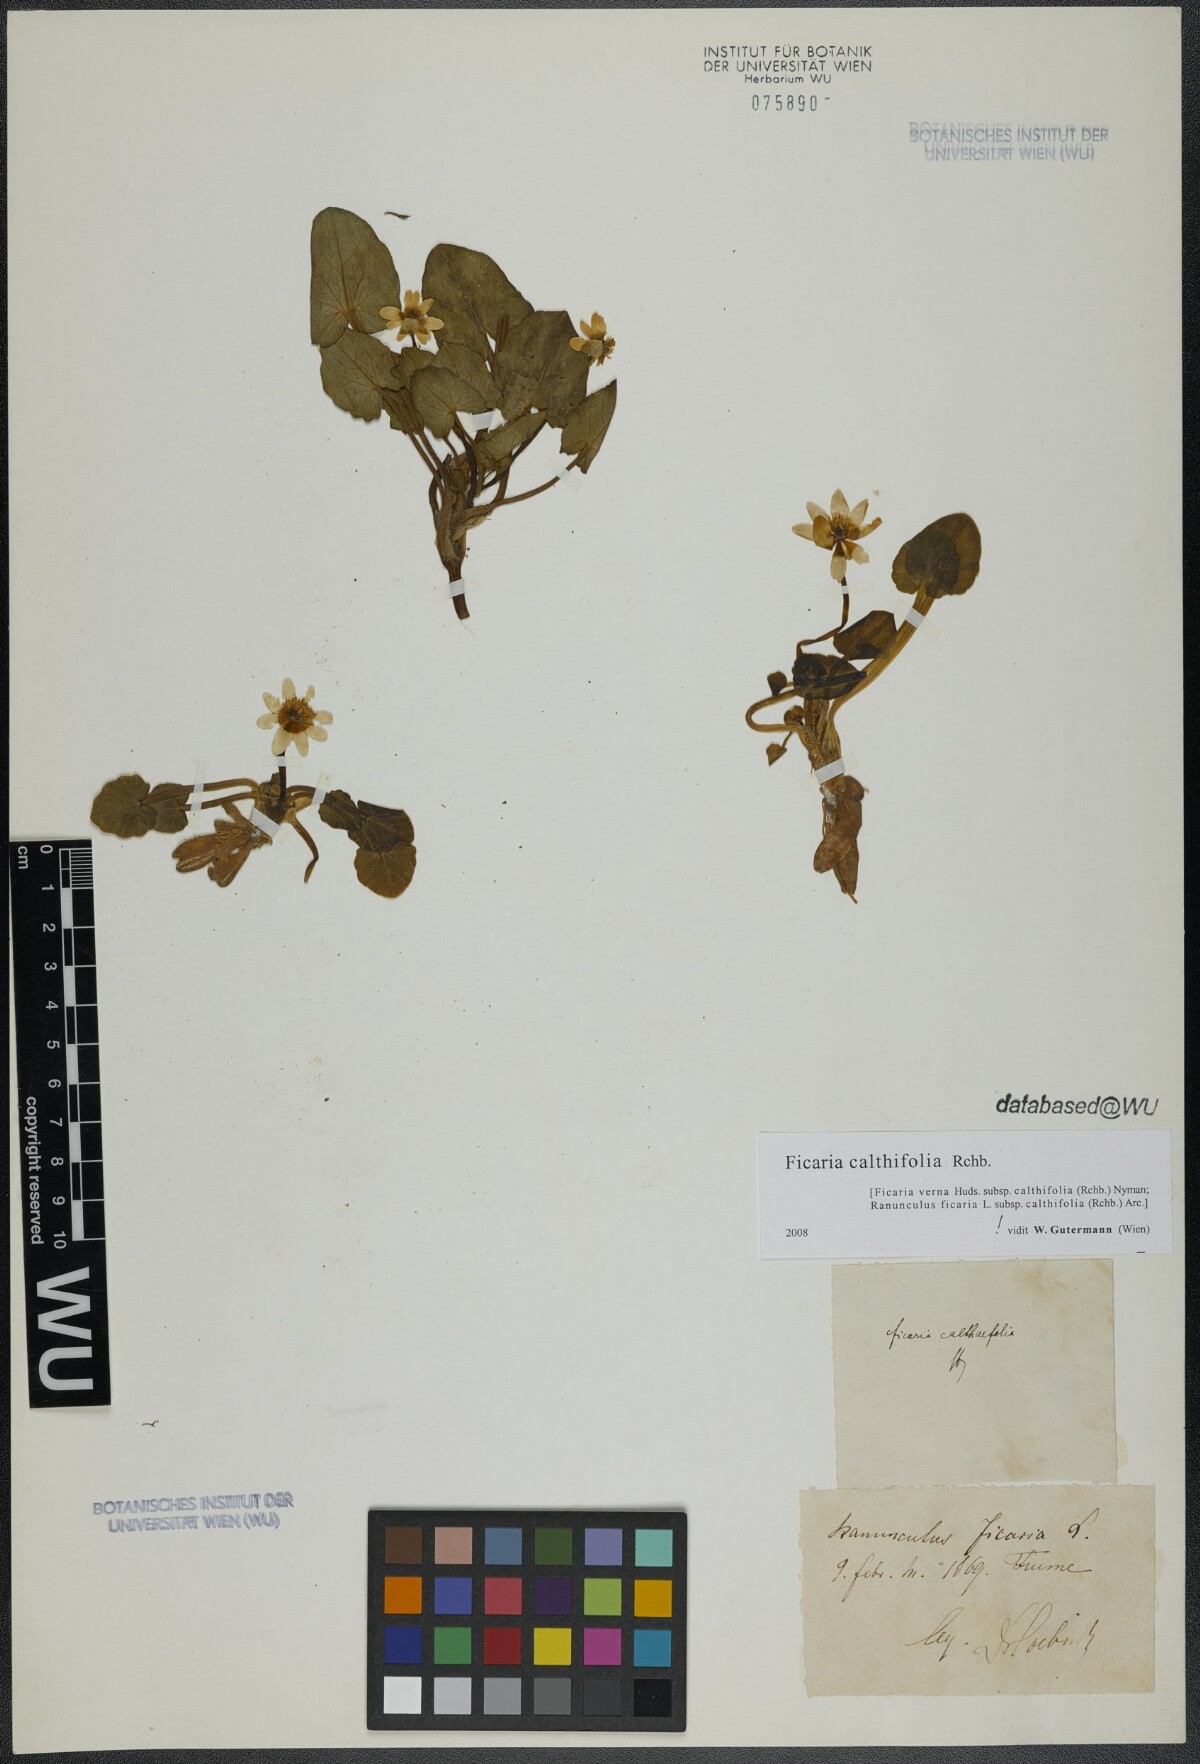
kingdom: Plantae
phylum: Tracheophyta
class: Magnoliopsida
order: Ranunculales
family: Ranunculaceae
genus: Ficaria
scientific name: Ficaria calthifolia
